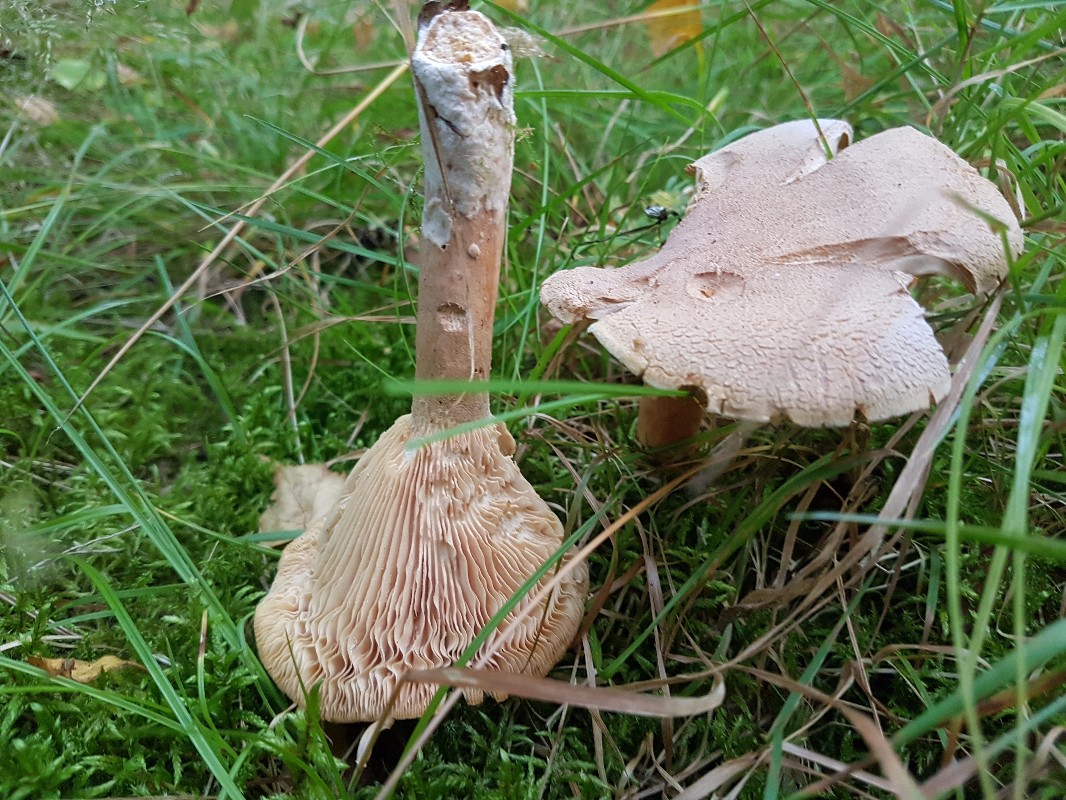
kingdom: Fungi
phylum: Basidiomycota
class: Agaricomycetes
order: Russulales
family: Russulaceae
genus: Lactarius
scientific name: Lactarius helvus
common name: mose-mælkehat
